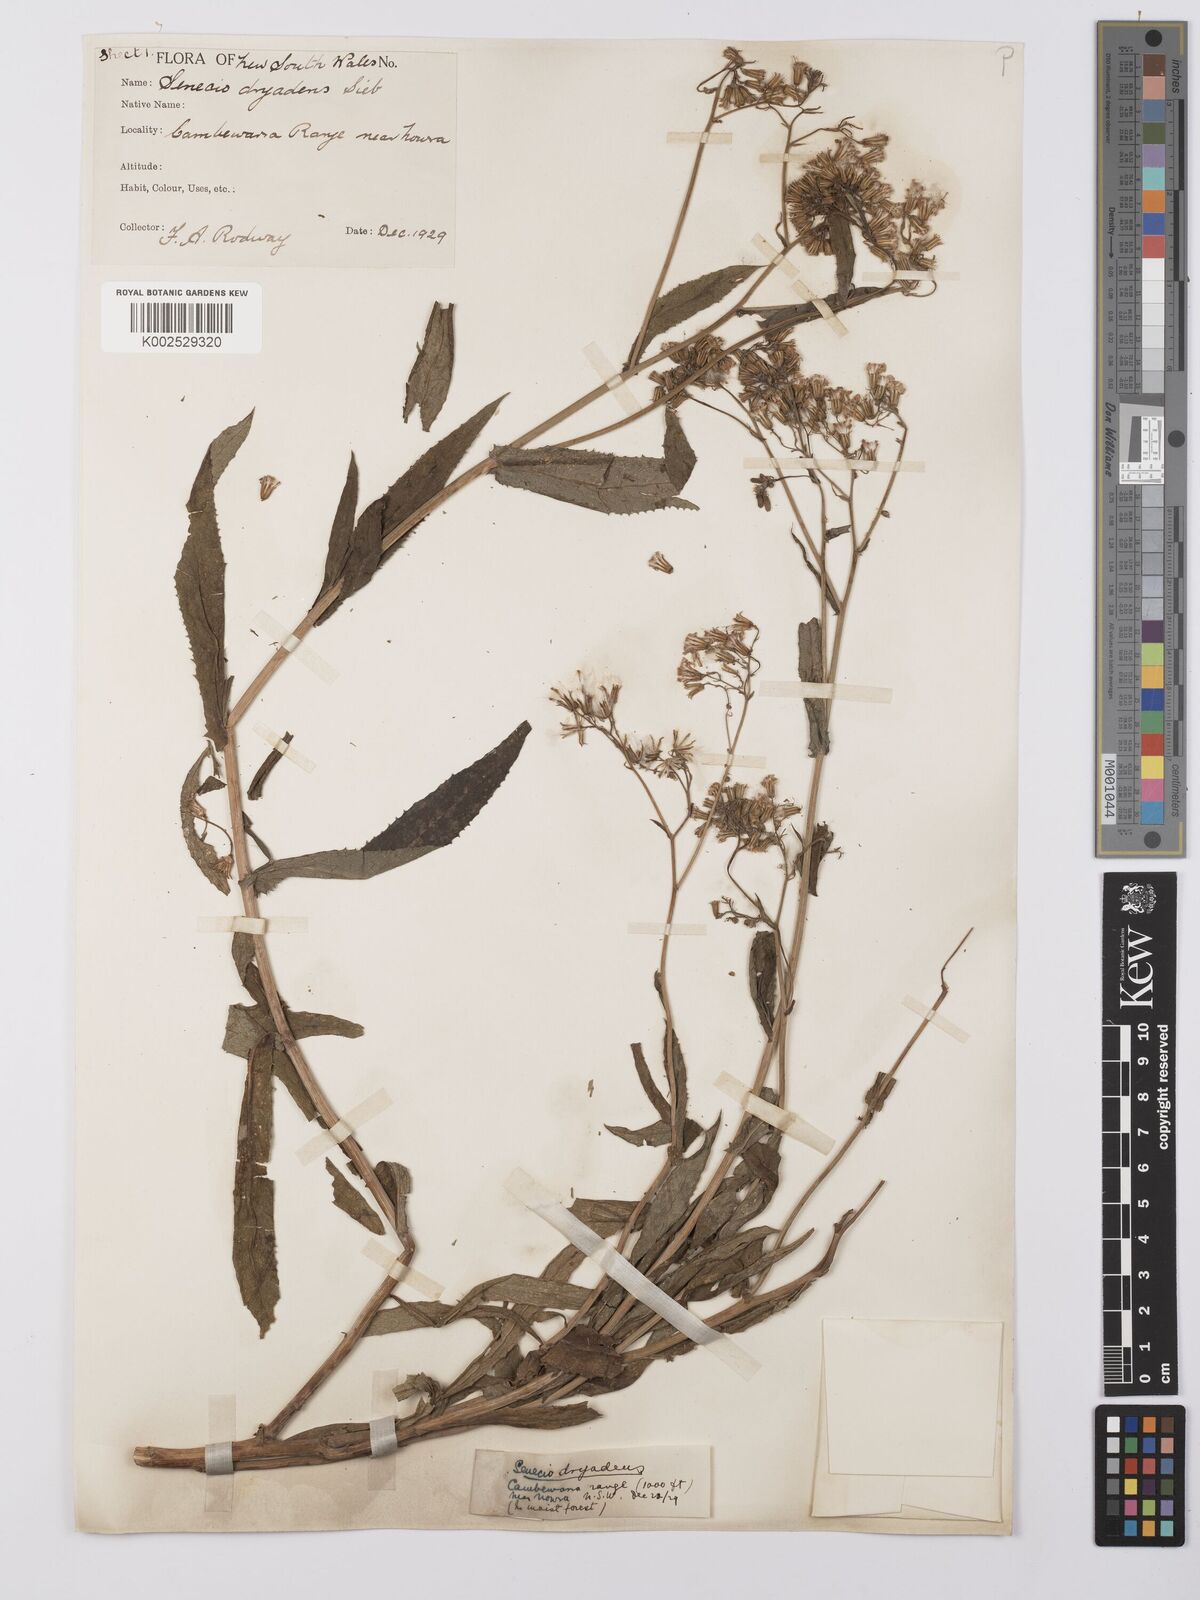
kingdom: Plantae
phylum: Tracheophyta
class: Magnoliopsida
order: Asterales
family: Asteraceae
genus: Senecio
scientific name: Senecio linearifolius
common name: Fireweed groundsel
